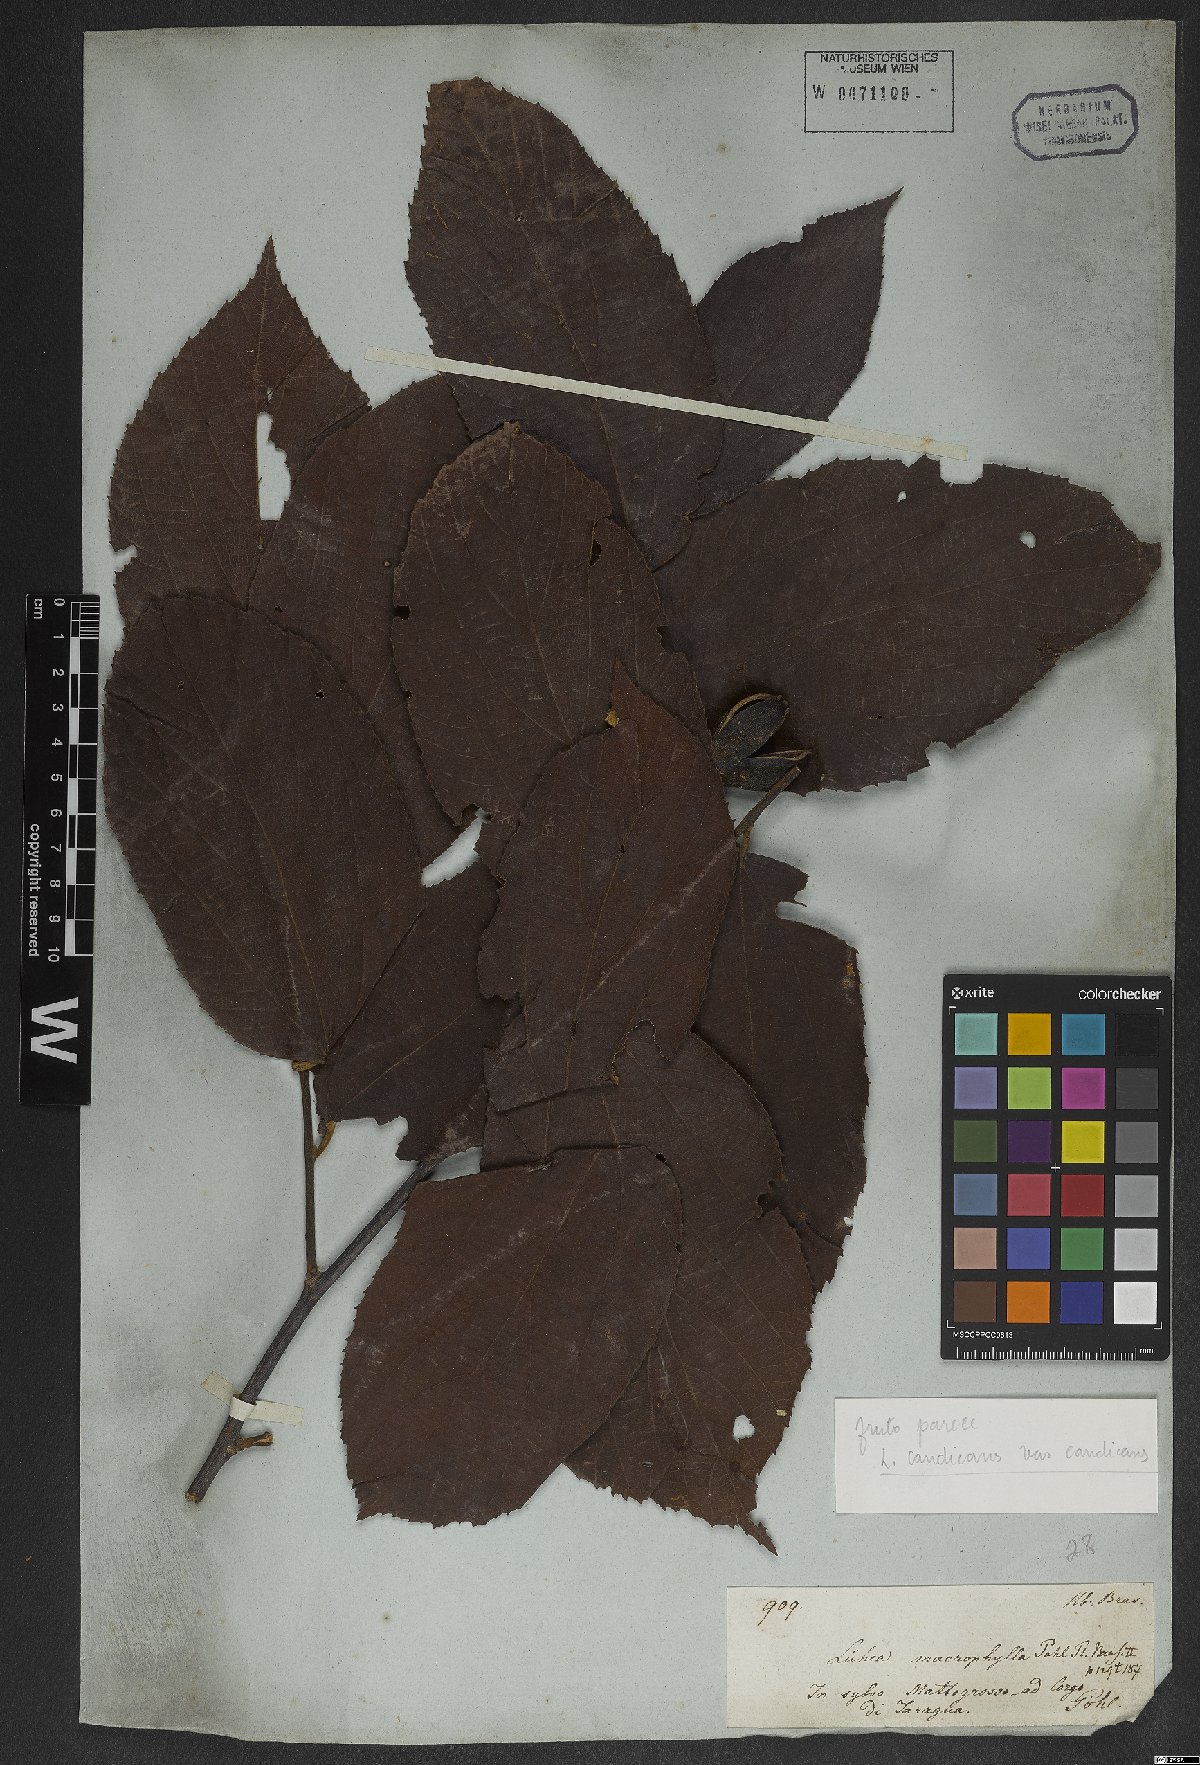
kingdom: Plantae
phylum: Tracheophyta
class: Magnoliopsida
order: Malvales
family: Malvaceae
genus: Luehea
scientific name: Luehea candicans
